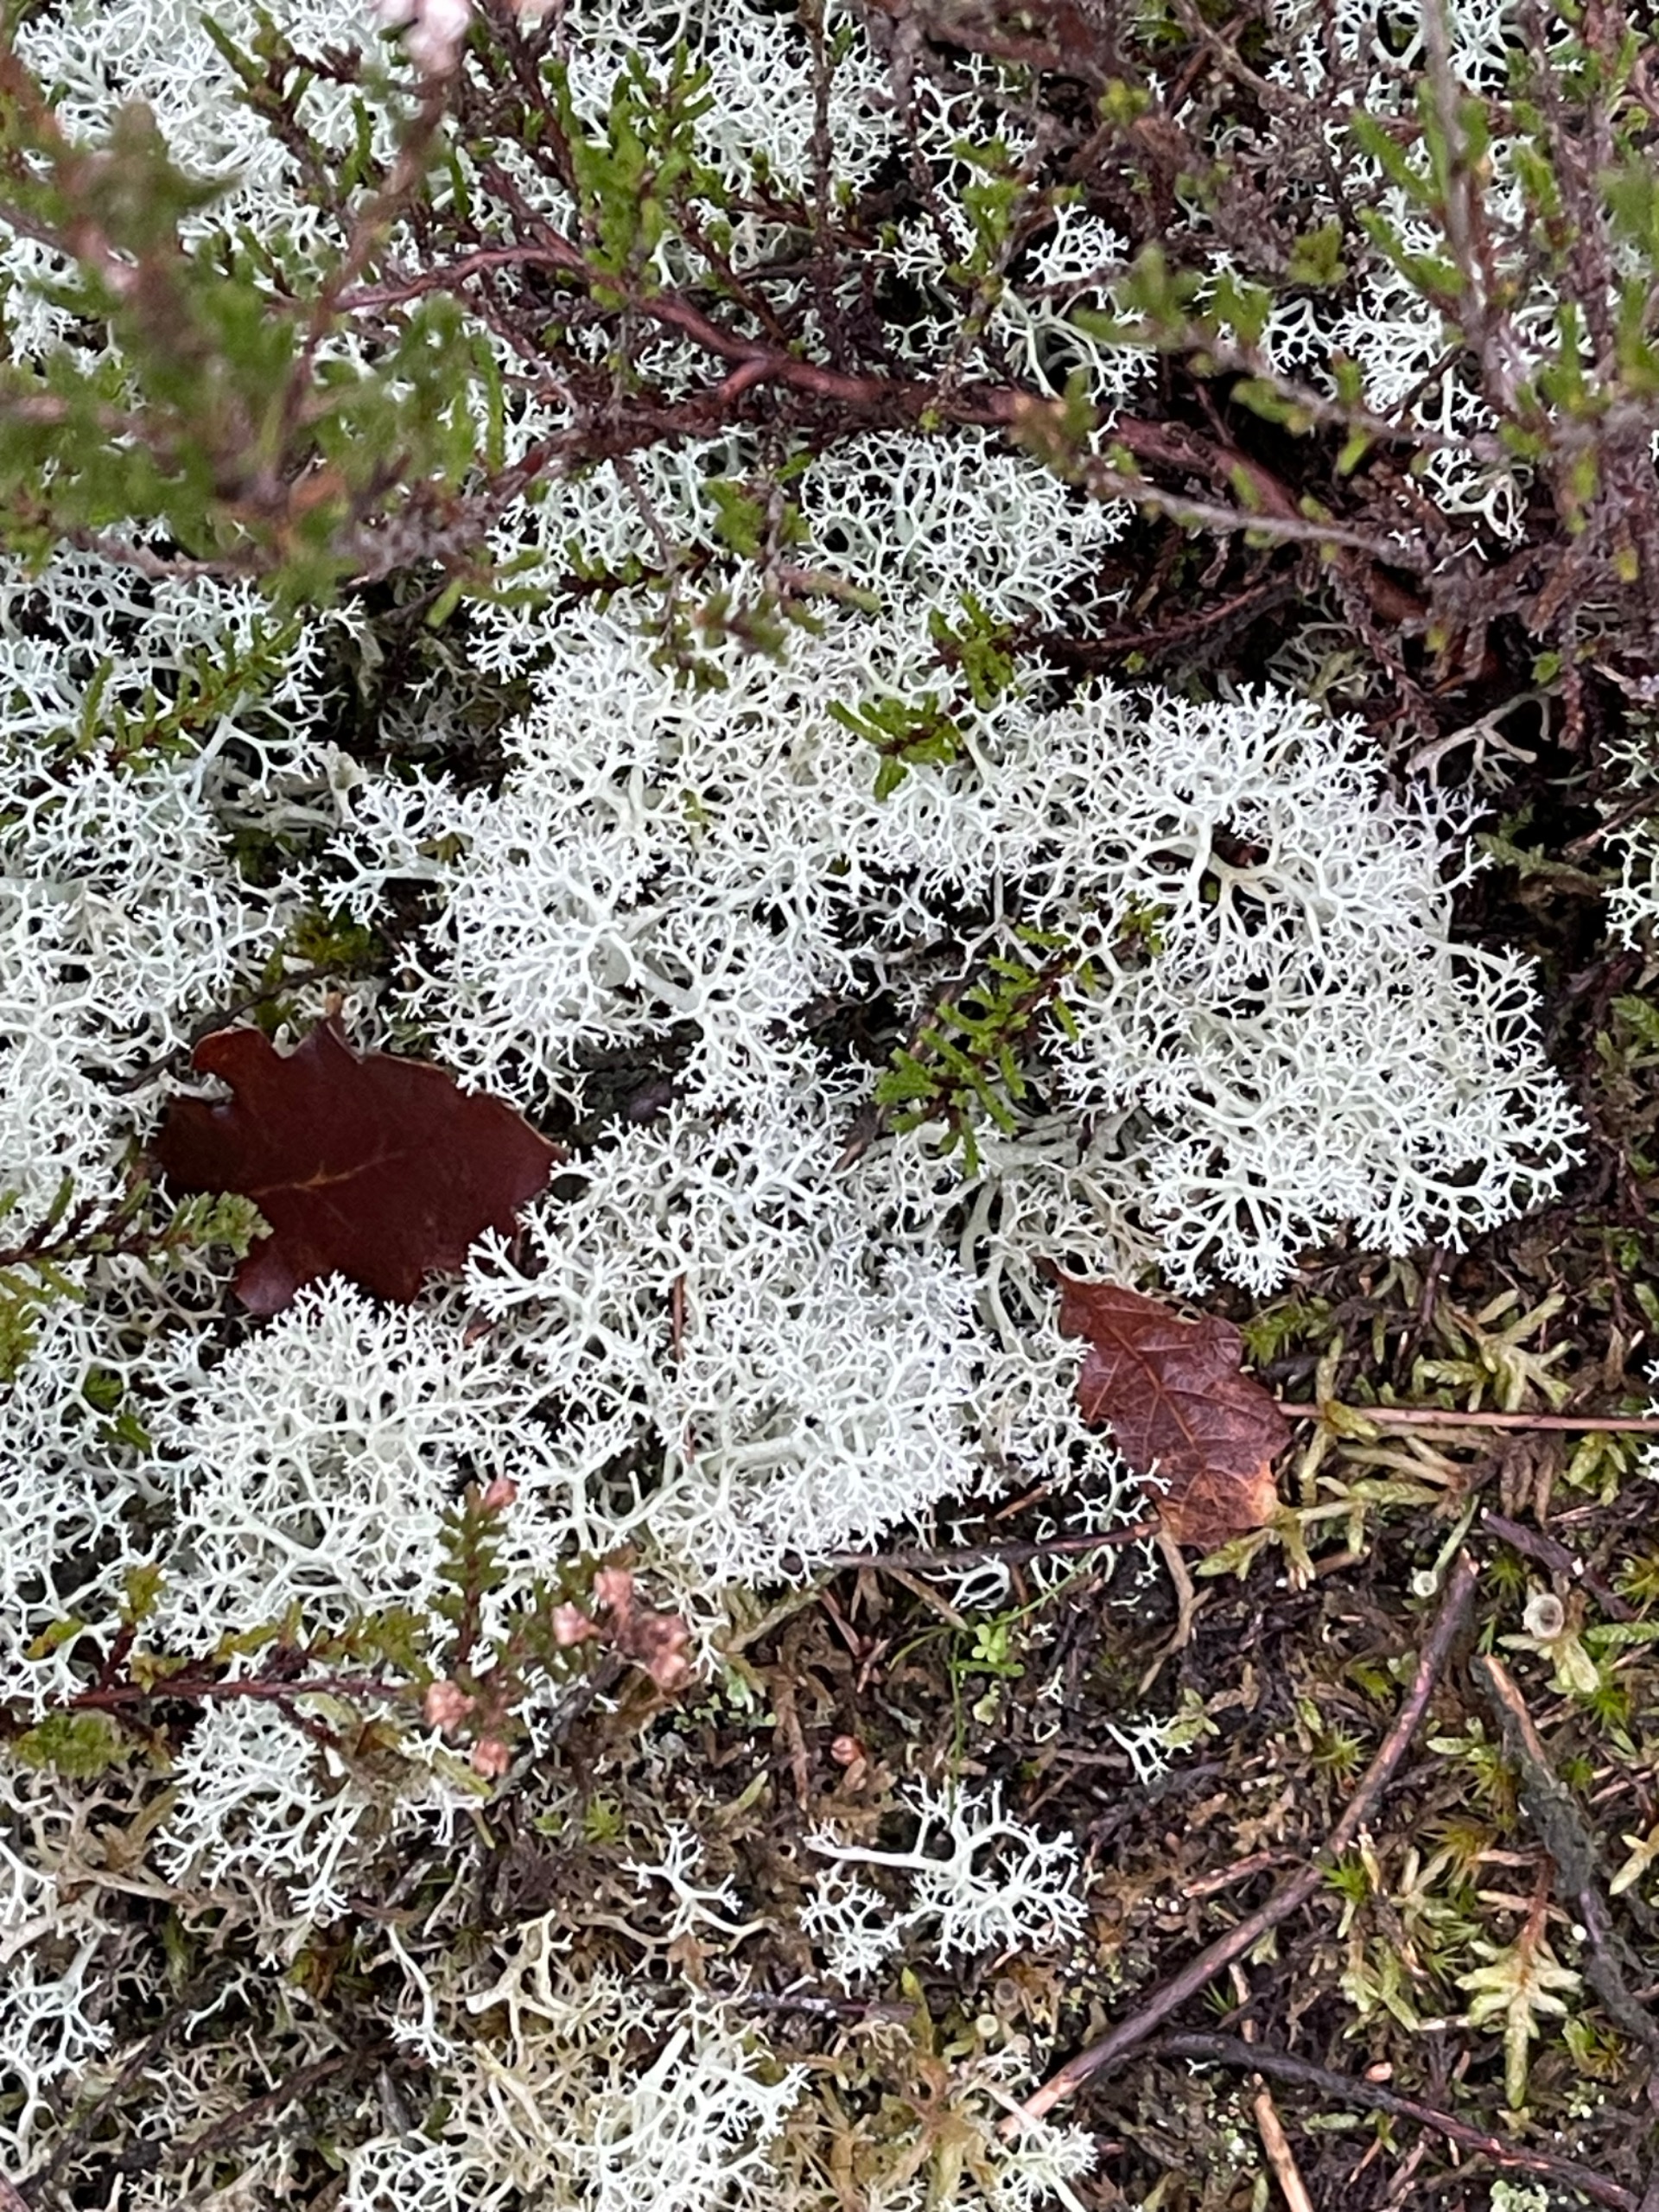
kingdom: Fungi
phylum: Ascomycota
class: Lecanoromycetes
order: Lecanorales
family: Cladoniaceae
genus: Cladonia
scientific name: Cladonia portentosa
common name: Hede-rensdyrlav
